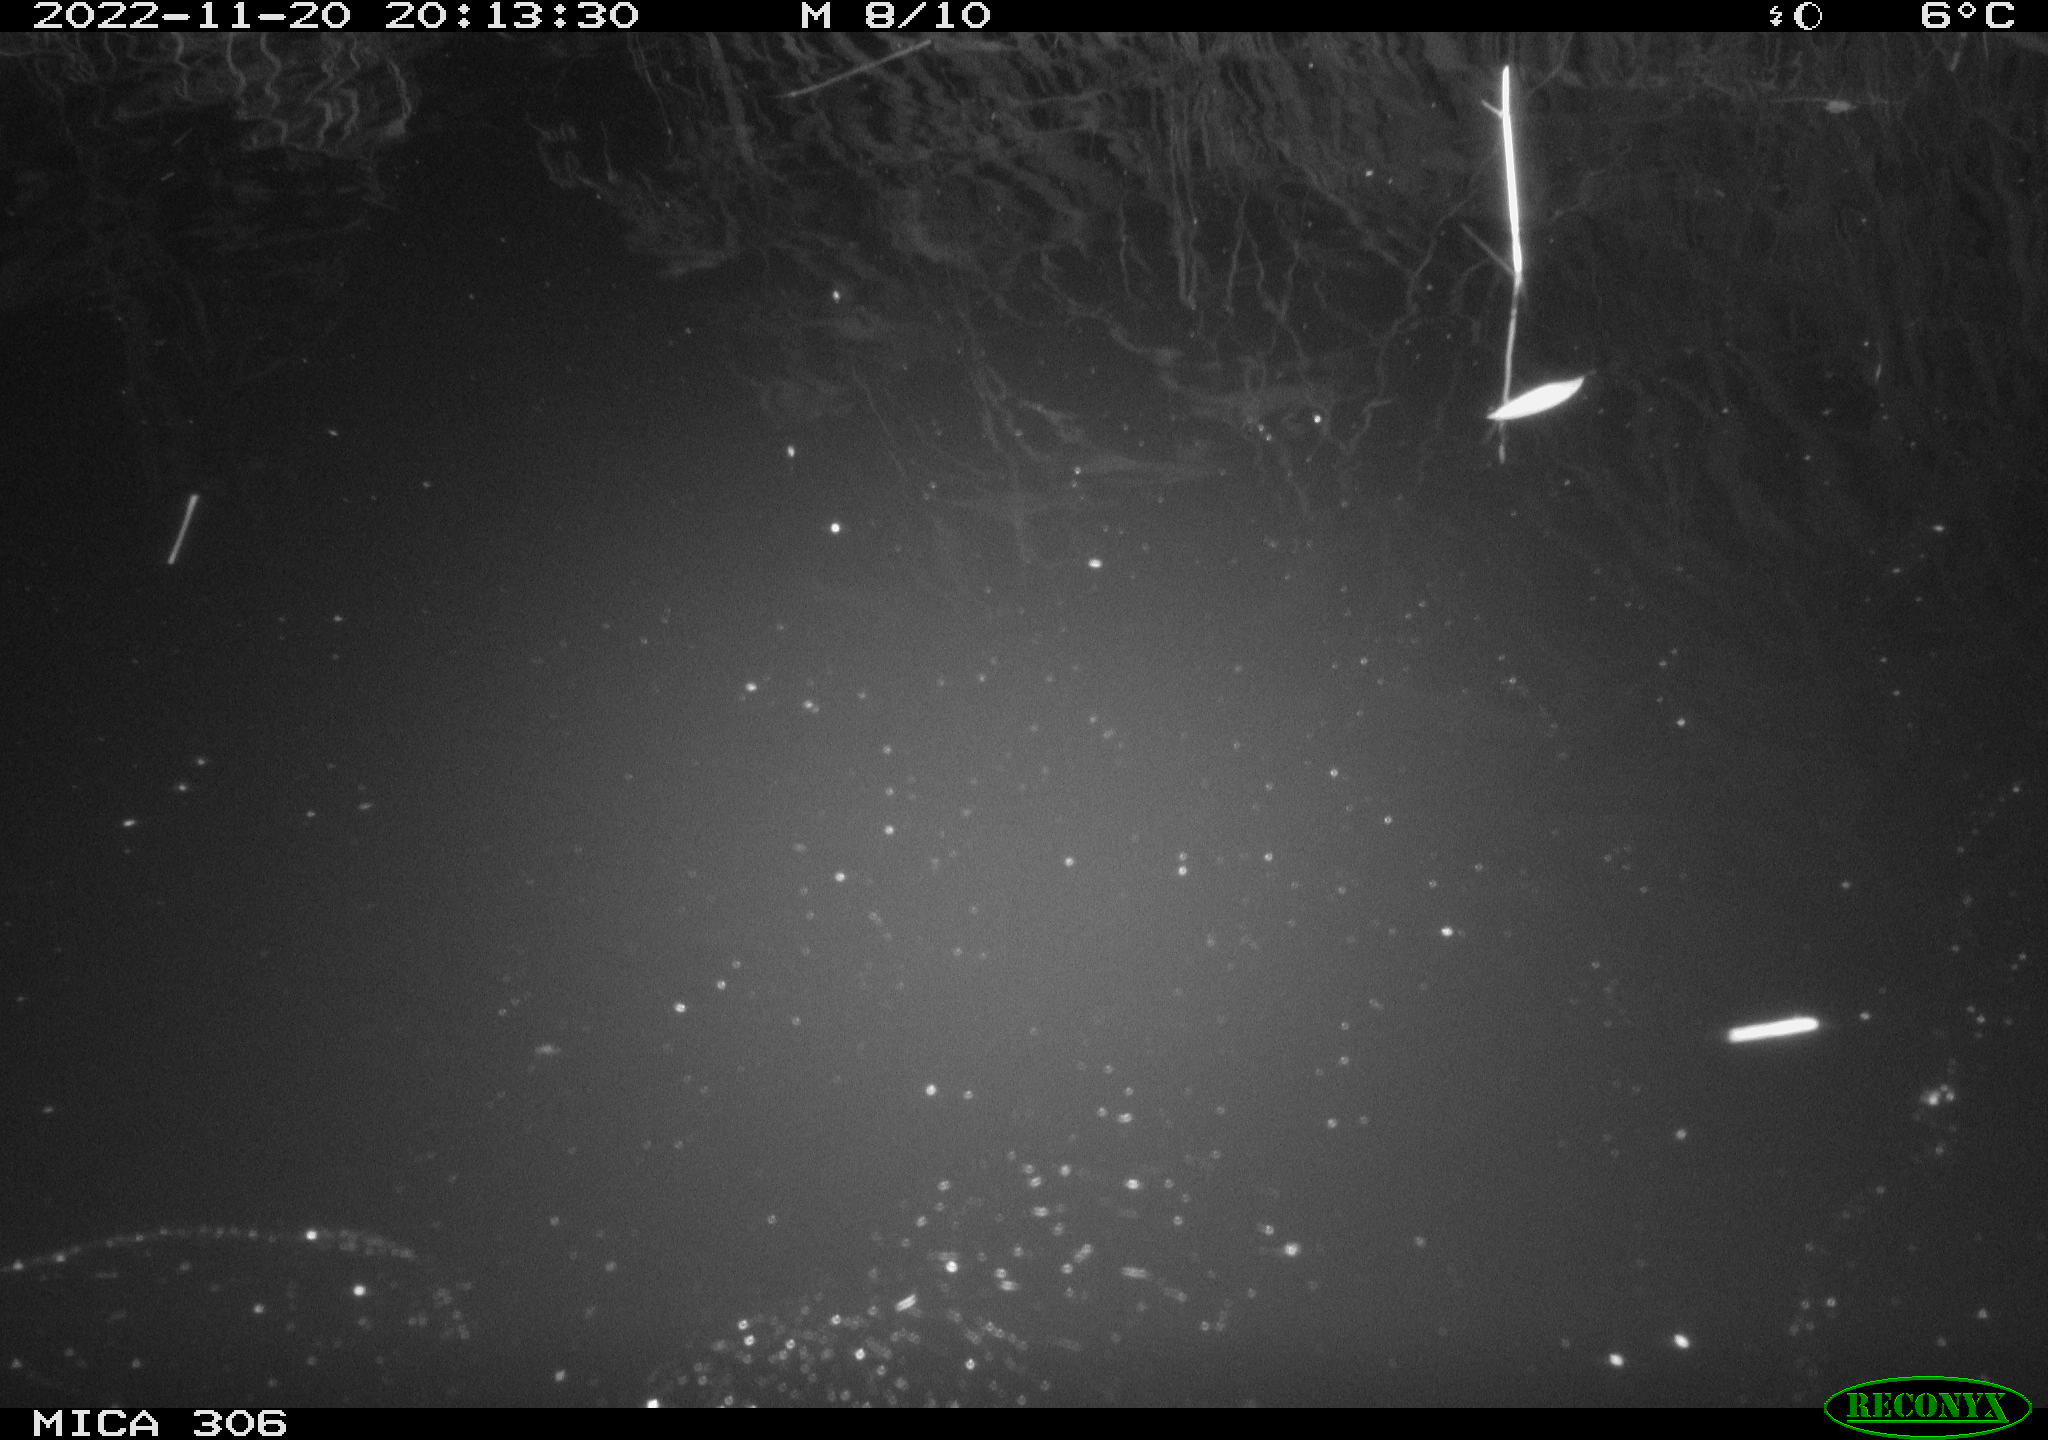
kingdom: Animalia
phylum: Chordata
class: Mammalia
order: Rodentia
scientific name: Rodentia
